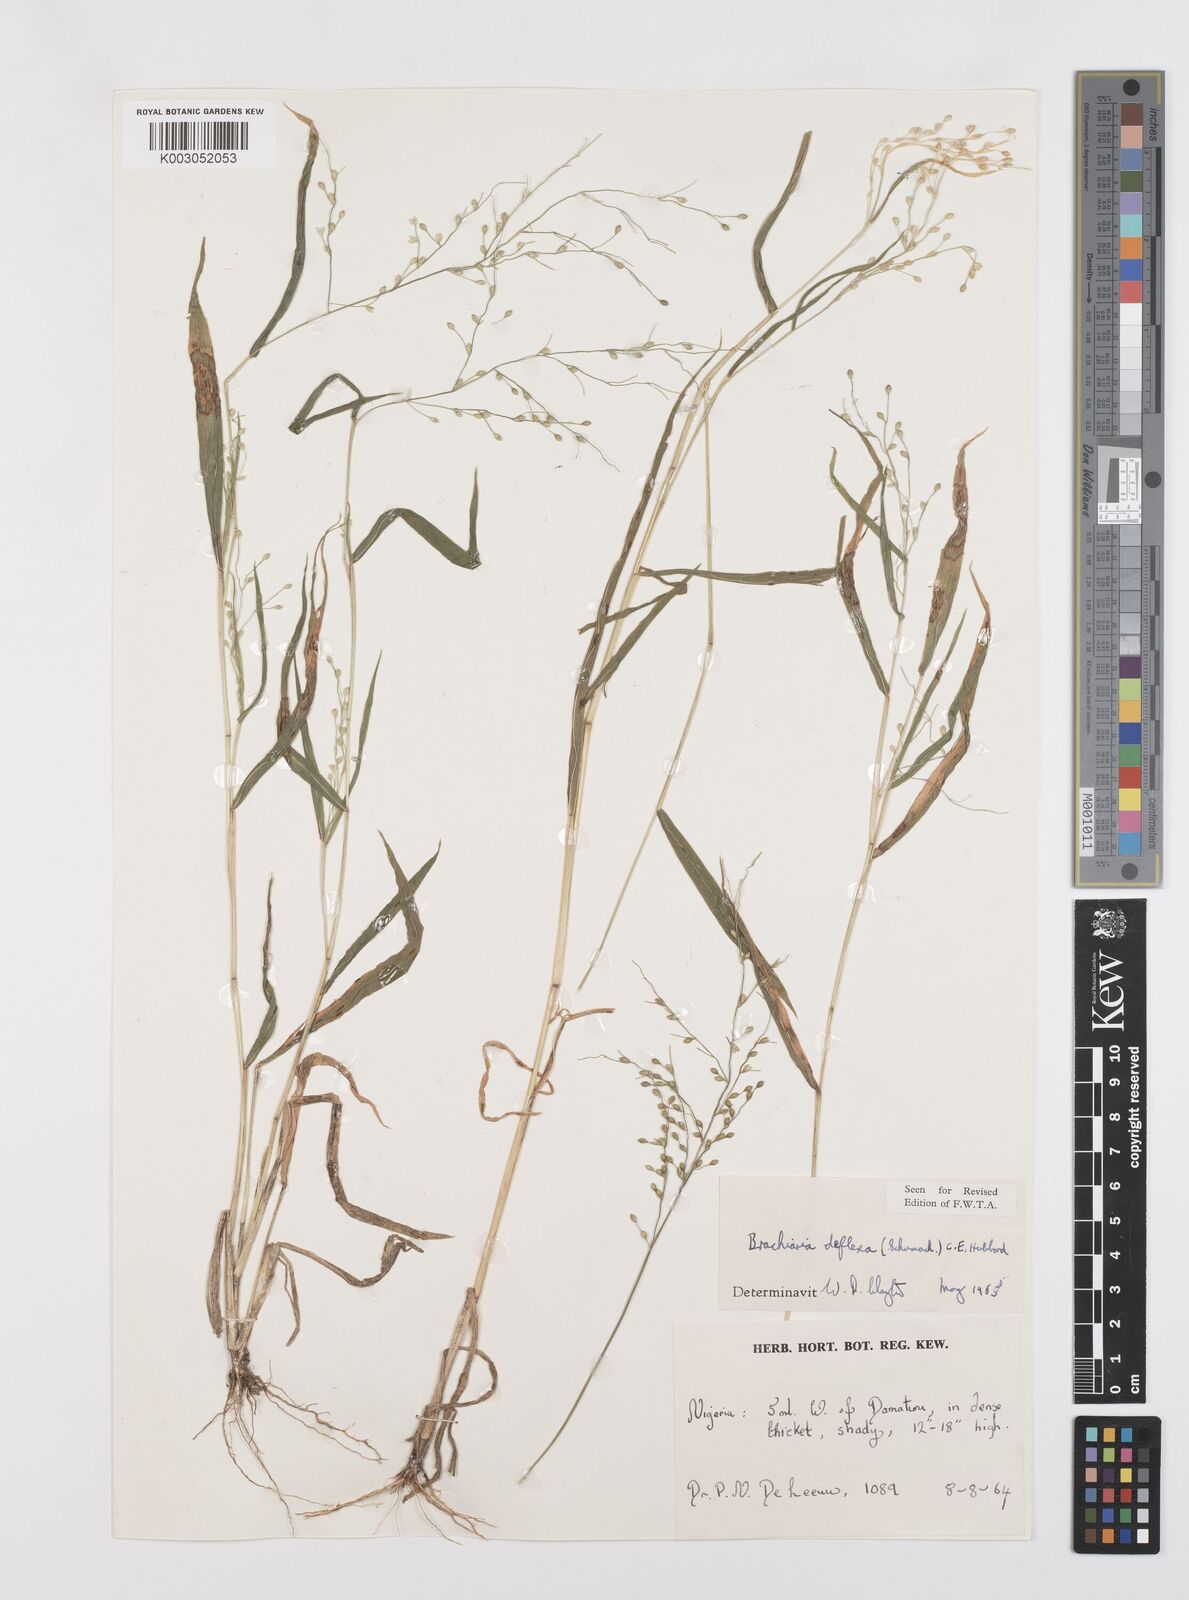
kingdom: Plantae
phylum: Tracheophyta
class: Liliopsida
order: Poales
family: Poaceae
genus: Urochloa
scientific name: Urochloa deflexa
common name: Guinea millet
